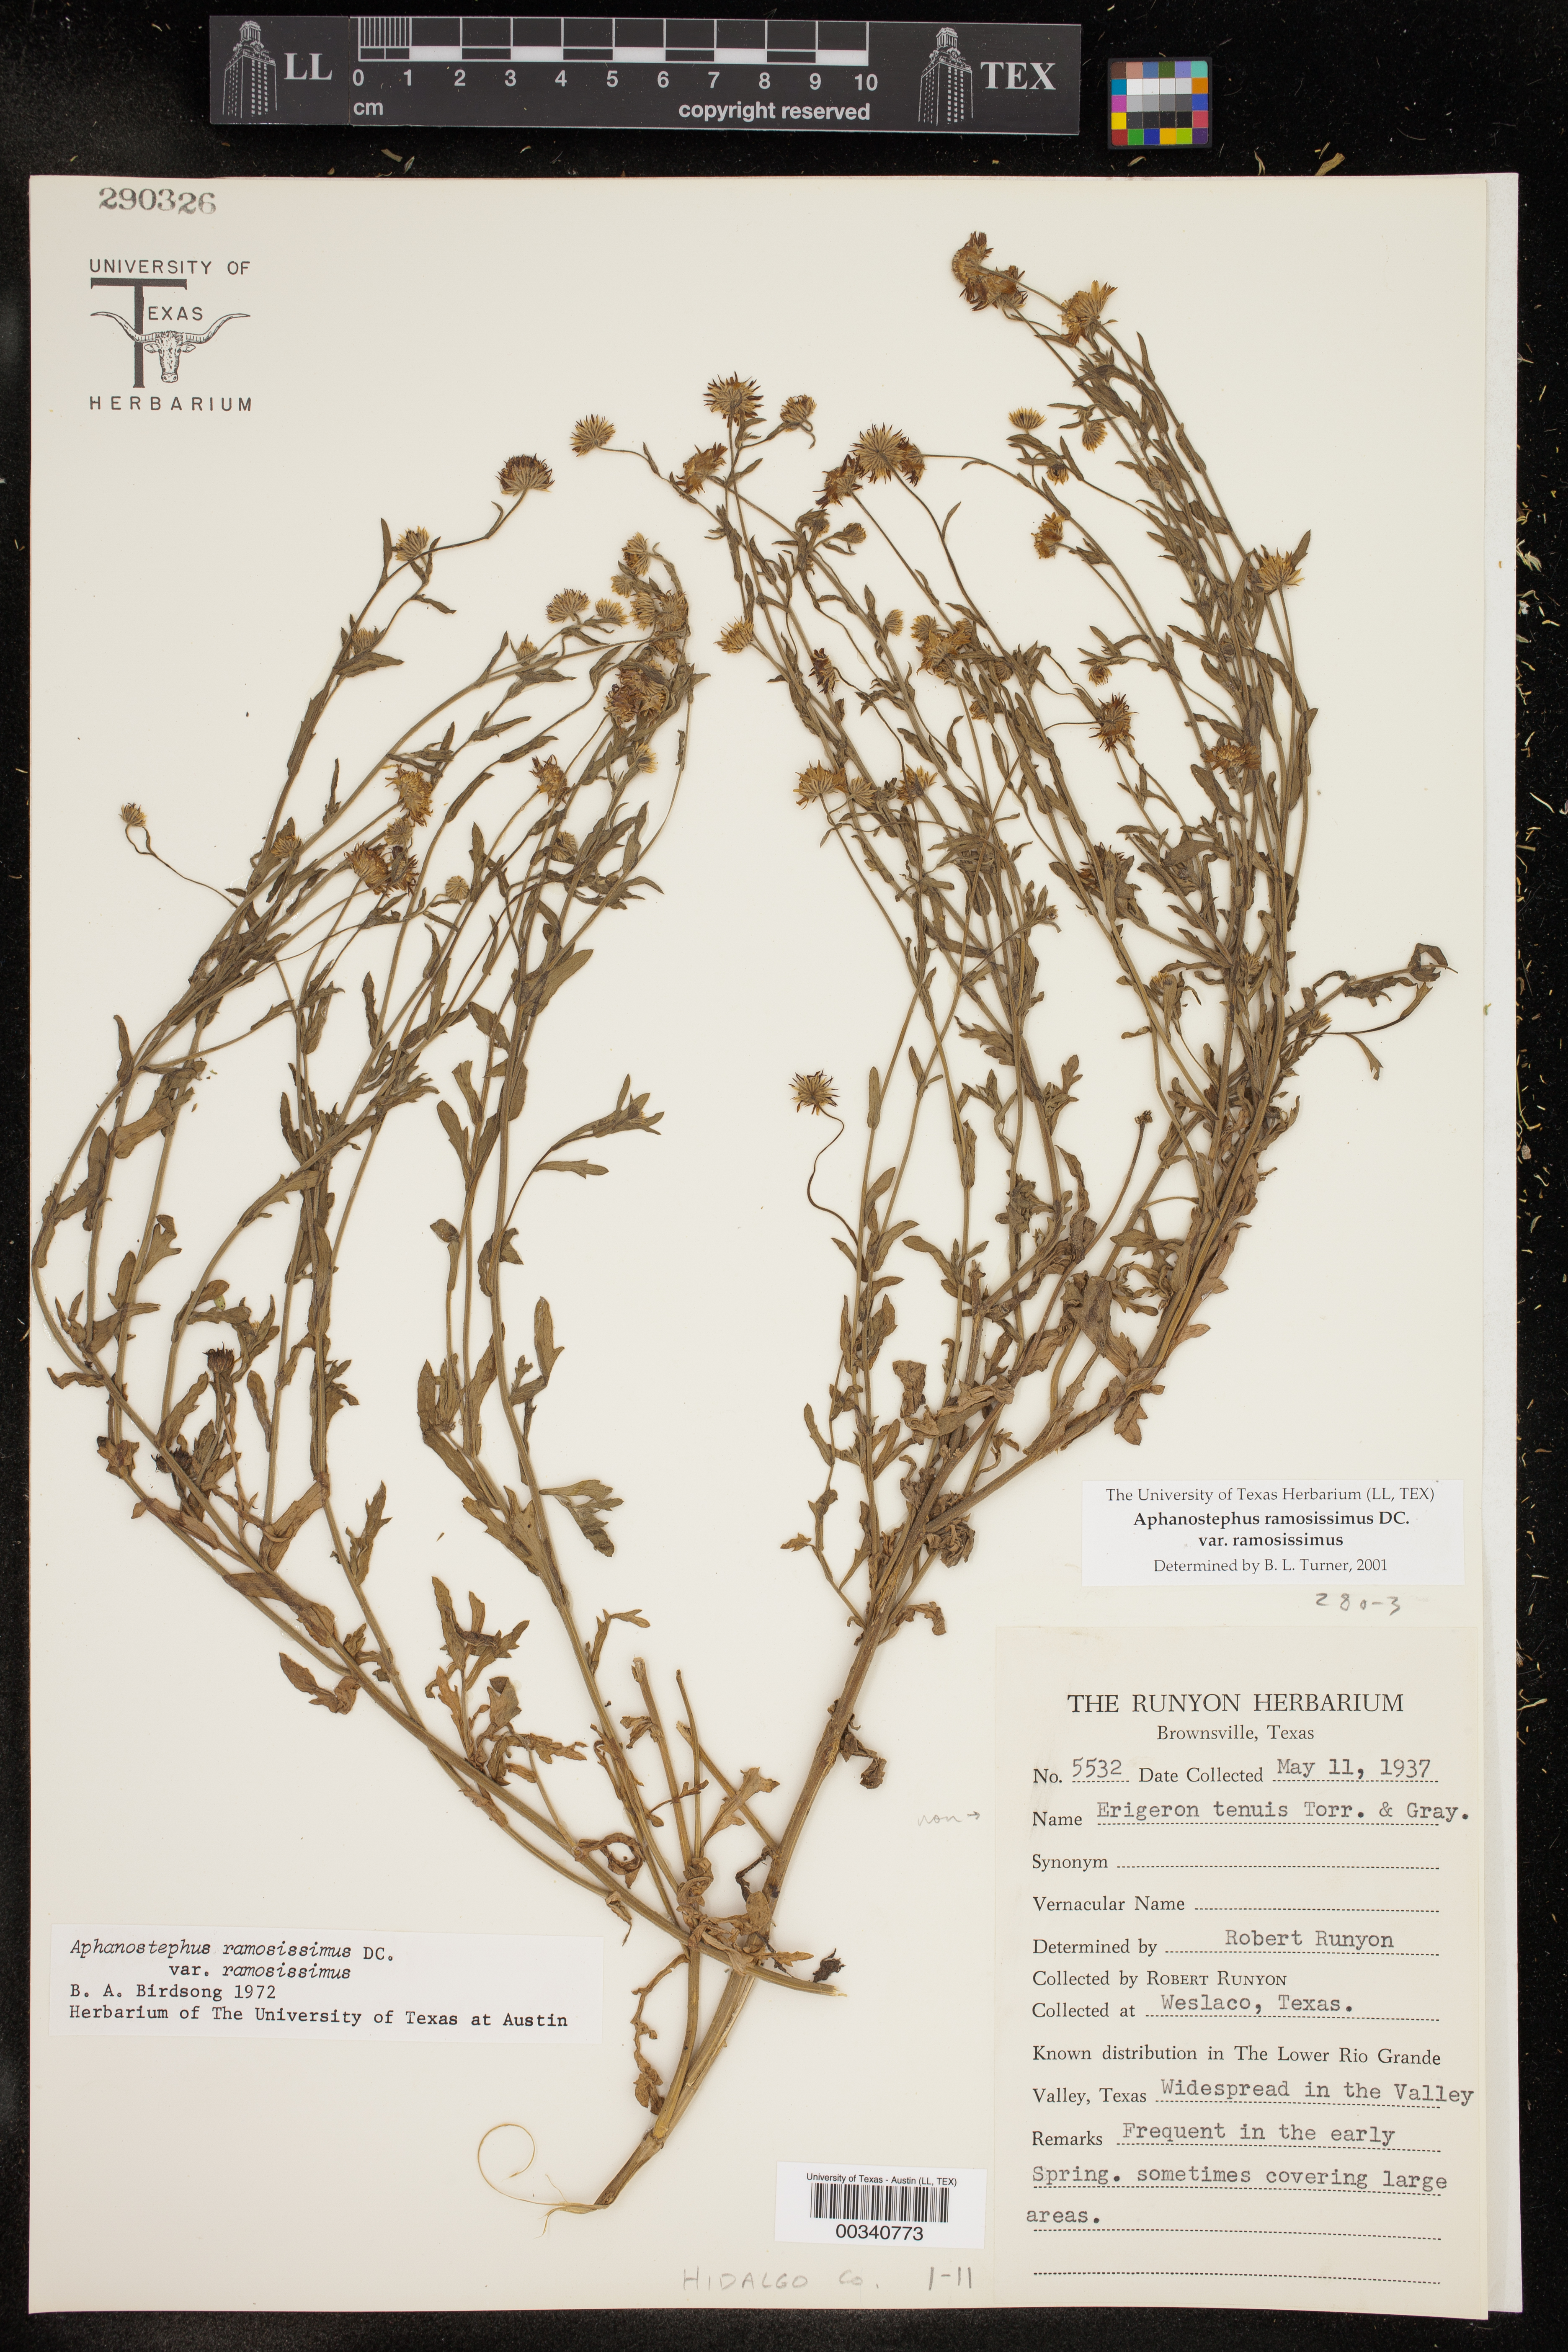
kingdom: Plantae
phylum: Tracheophyta
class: Magnoliopsida
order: Asterales
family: Asteraceae
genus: Aphanostephus
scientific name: Aphanostephus ramosissimus
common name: Plains lazy daisy
